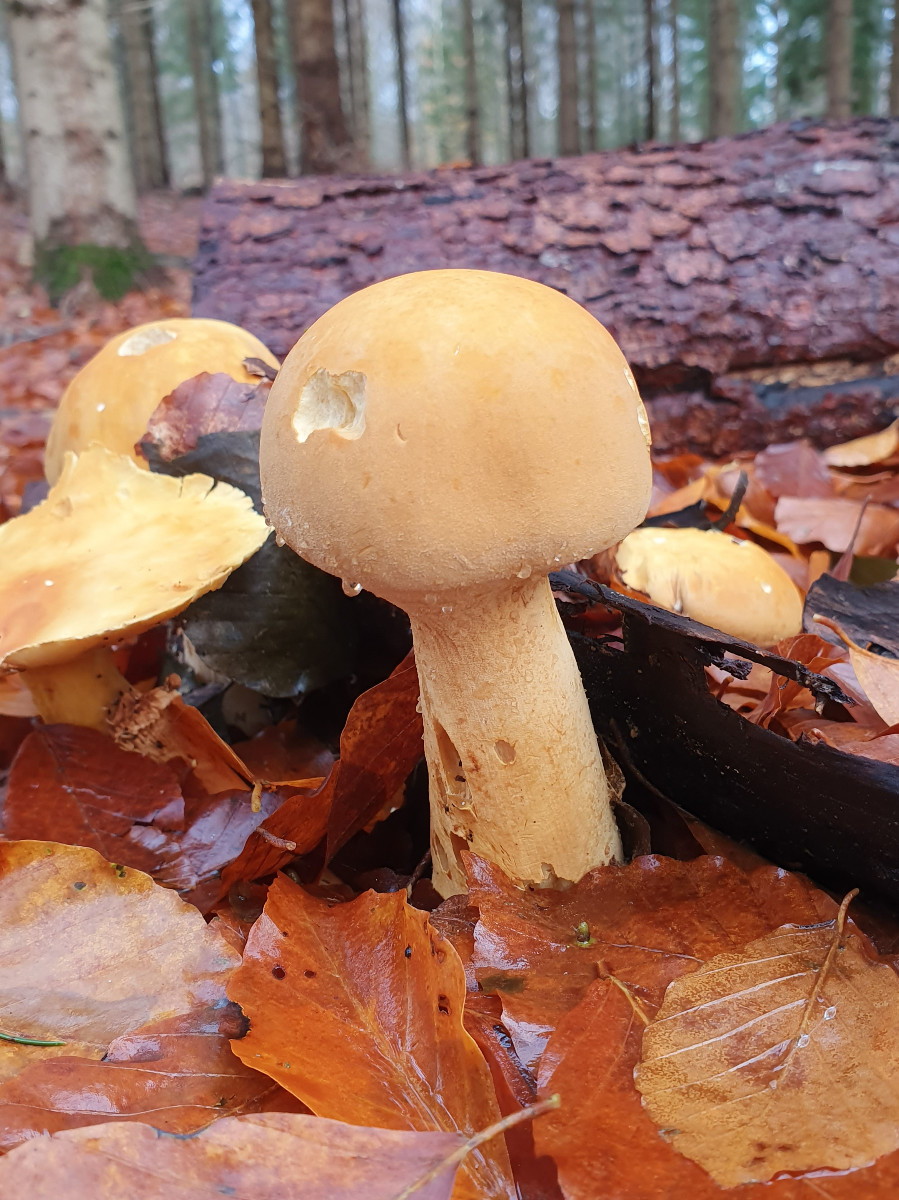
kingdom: Fungi
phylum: Basidiomycota
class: Agaricomycetes
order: Agaricales
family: Tricholomataceae
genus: Phaeolepiota
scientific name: Phaeolepiota aurea
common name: gyldenhat
